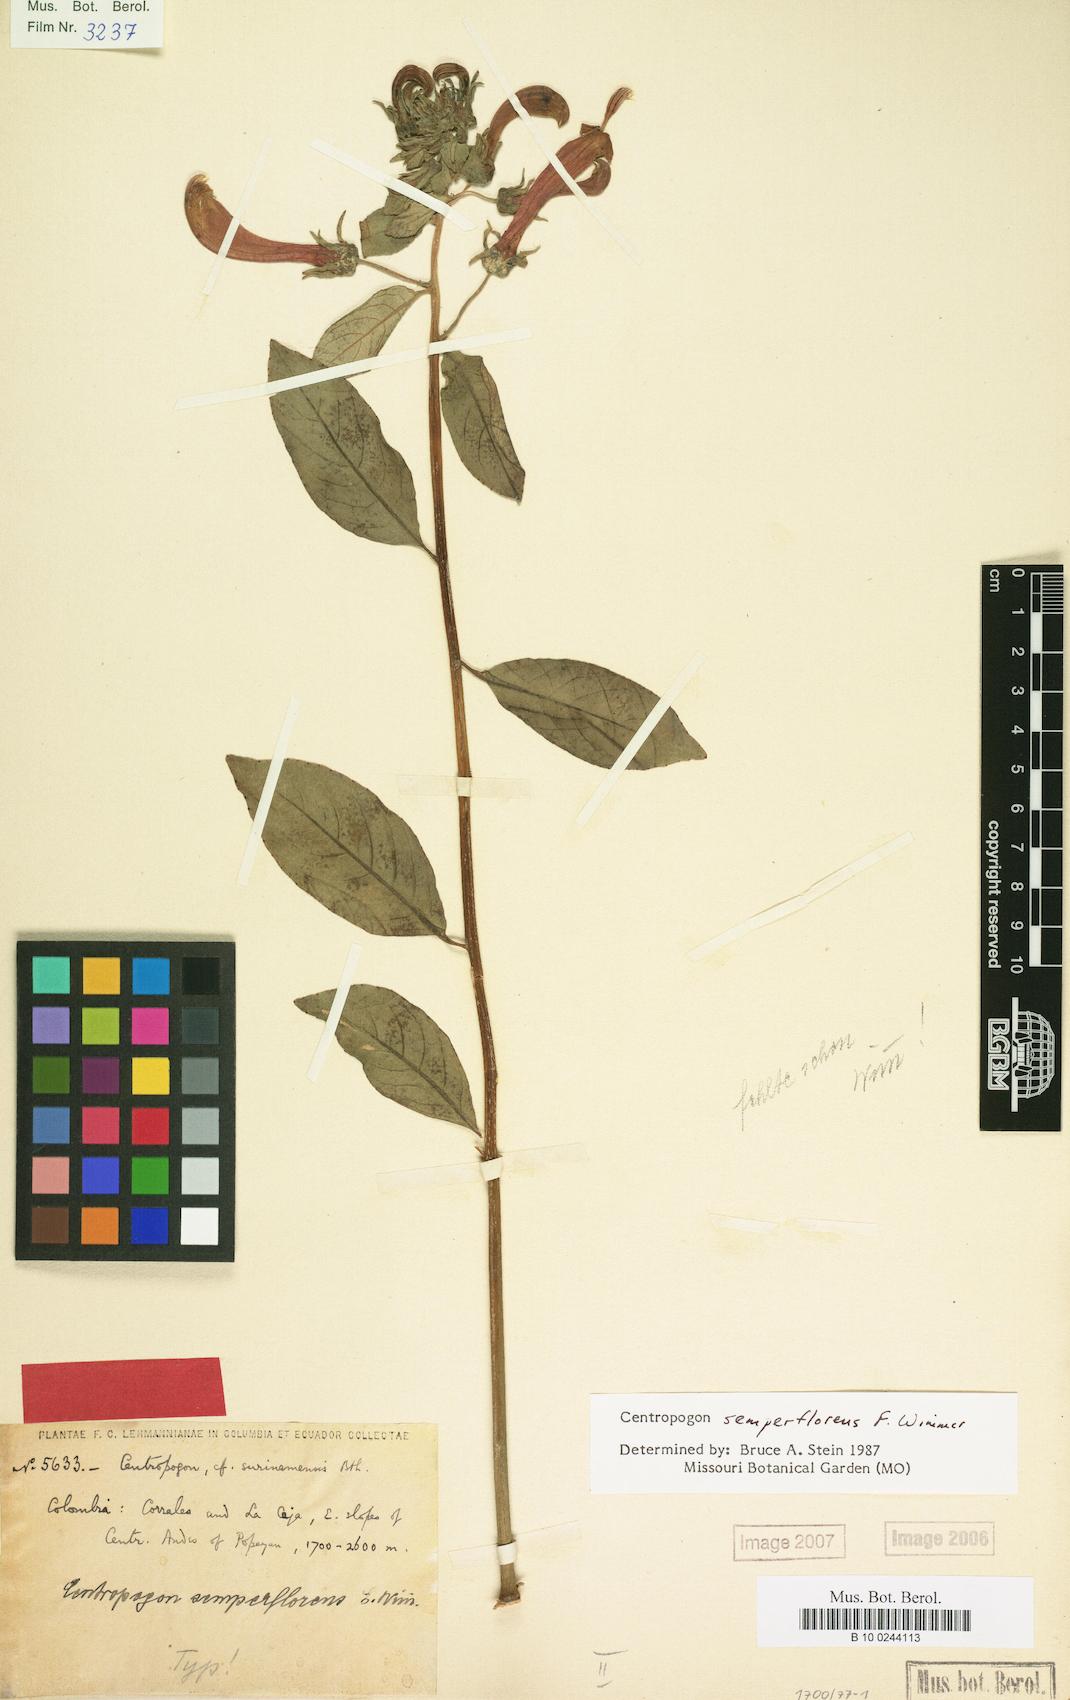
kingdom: Plantae
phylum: Tracheophyta
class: Magnoliopsida
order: Asterales
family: Campanulaceae
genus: Centropogon
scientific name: Centropogon solanifolius
